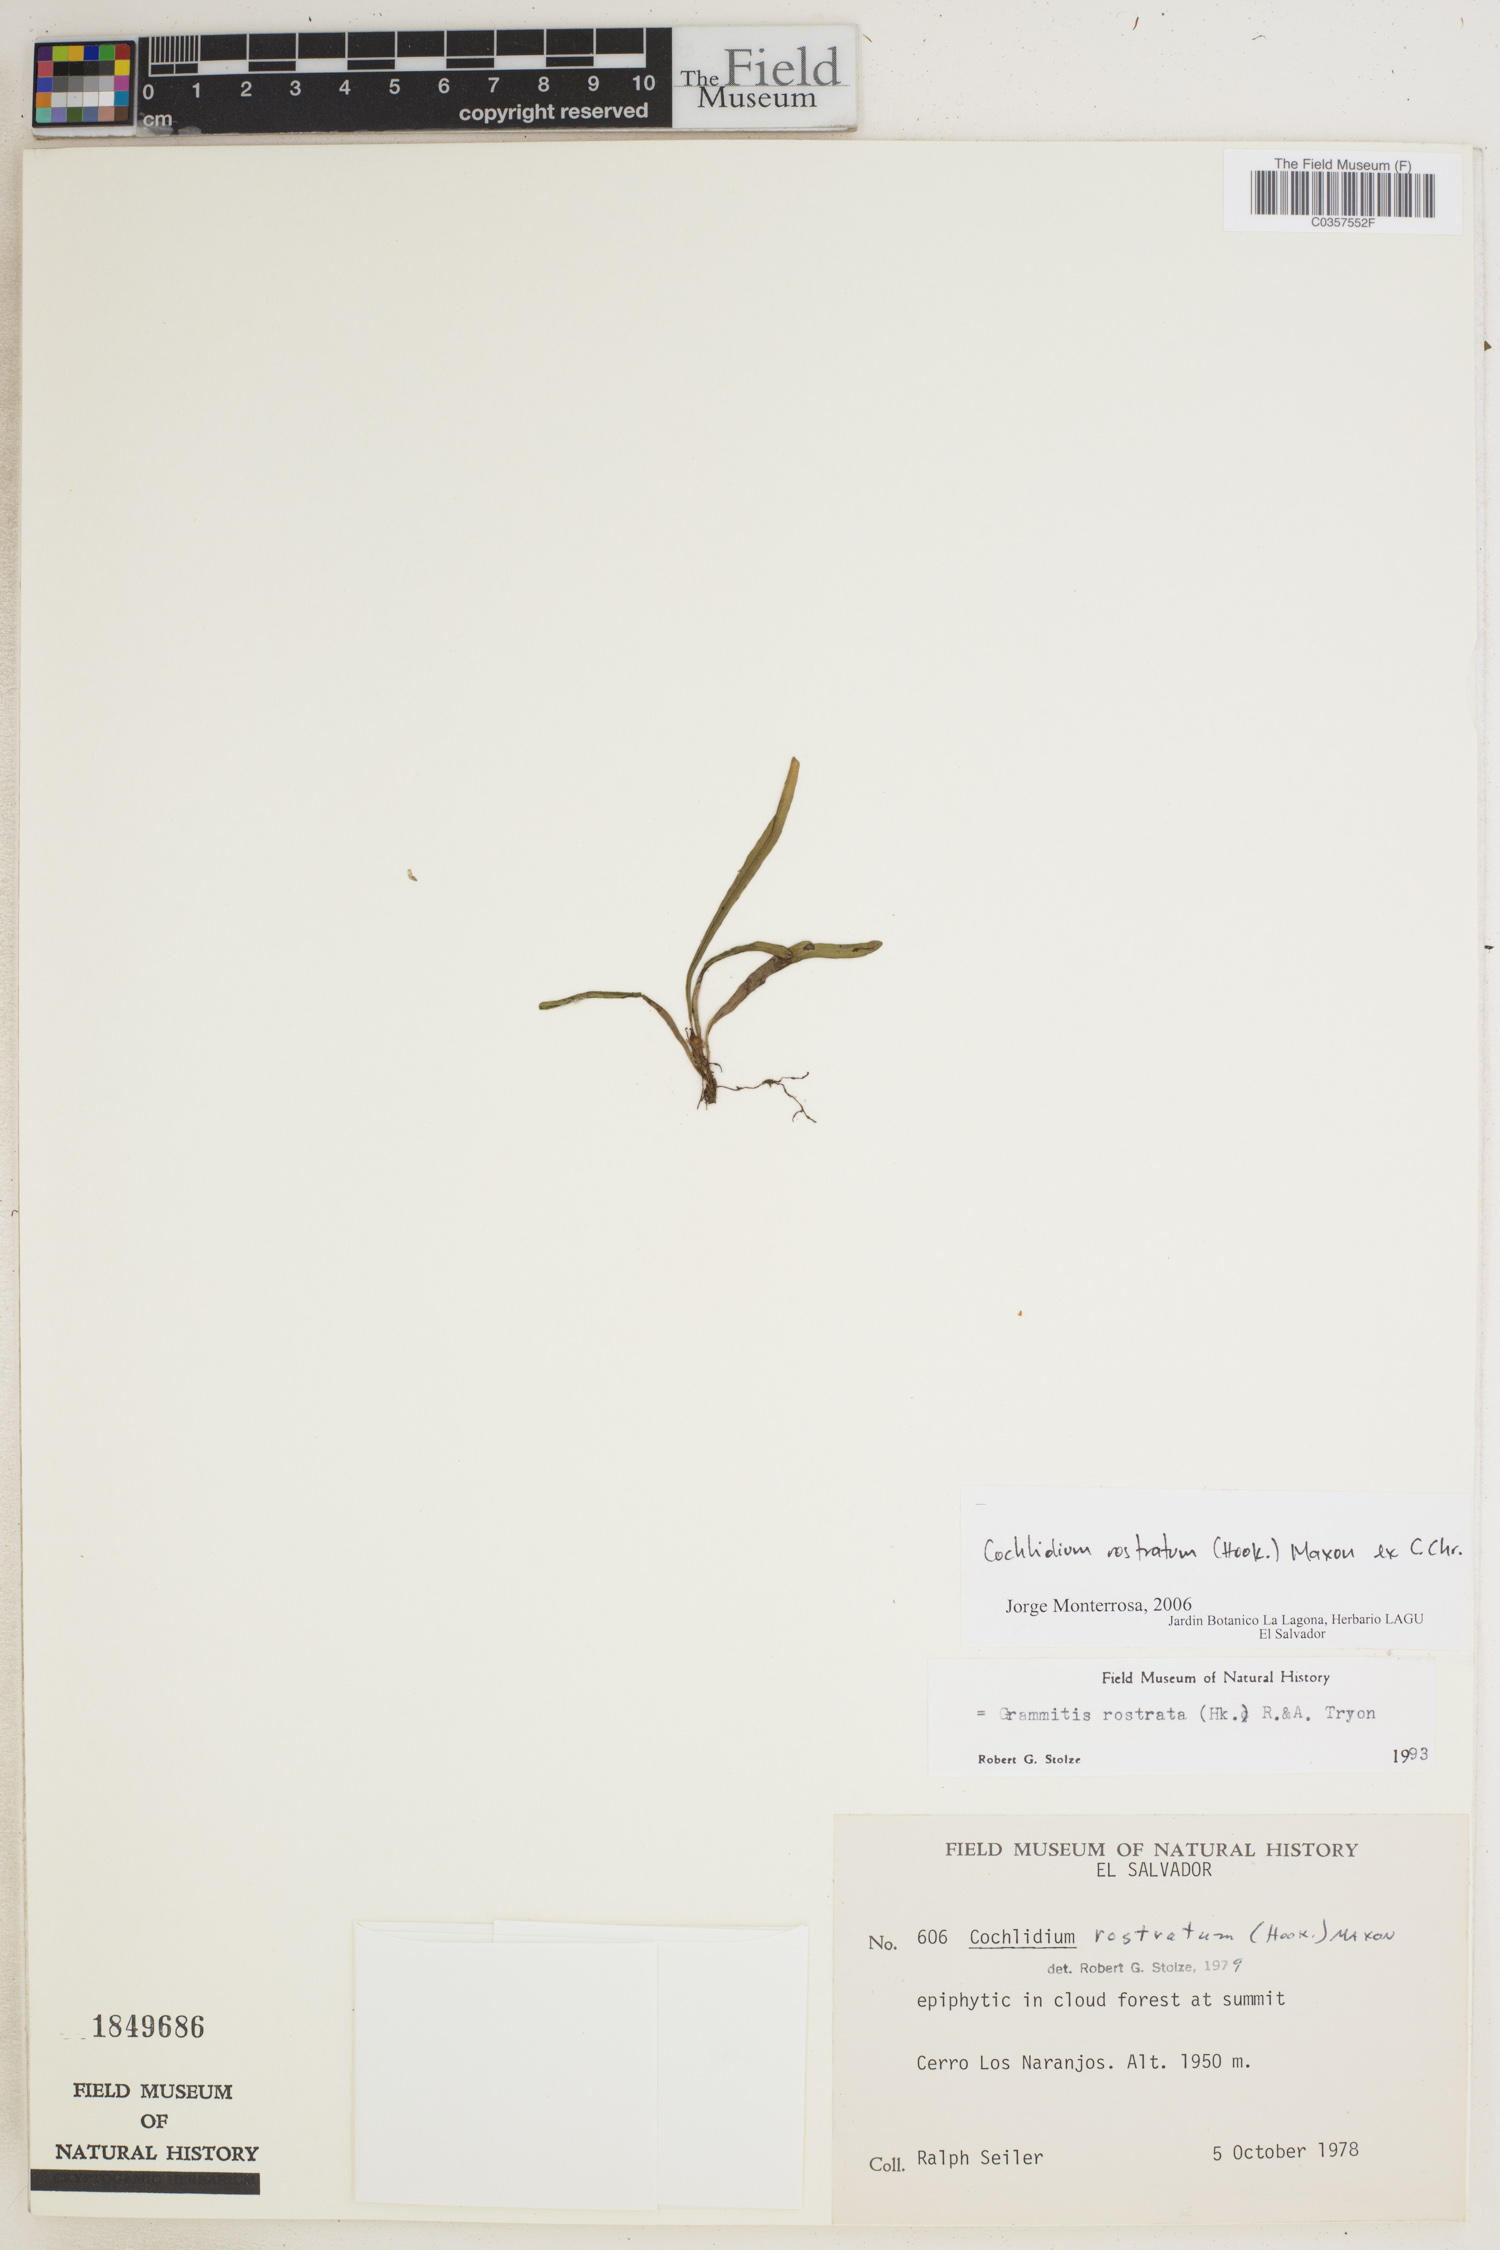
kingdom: Plantae
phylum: Tracheophyta
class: Polypodiopsida
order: Polypodiales
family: Polypodiaceae
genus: Cochlidium
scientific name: Cochlidium rostratum
